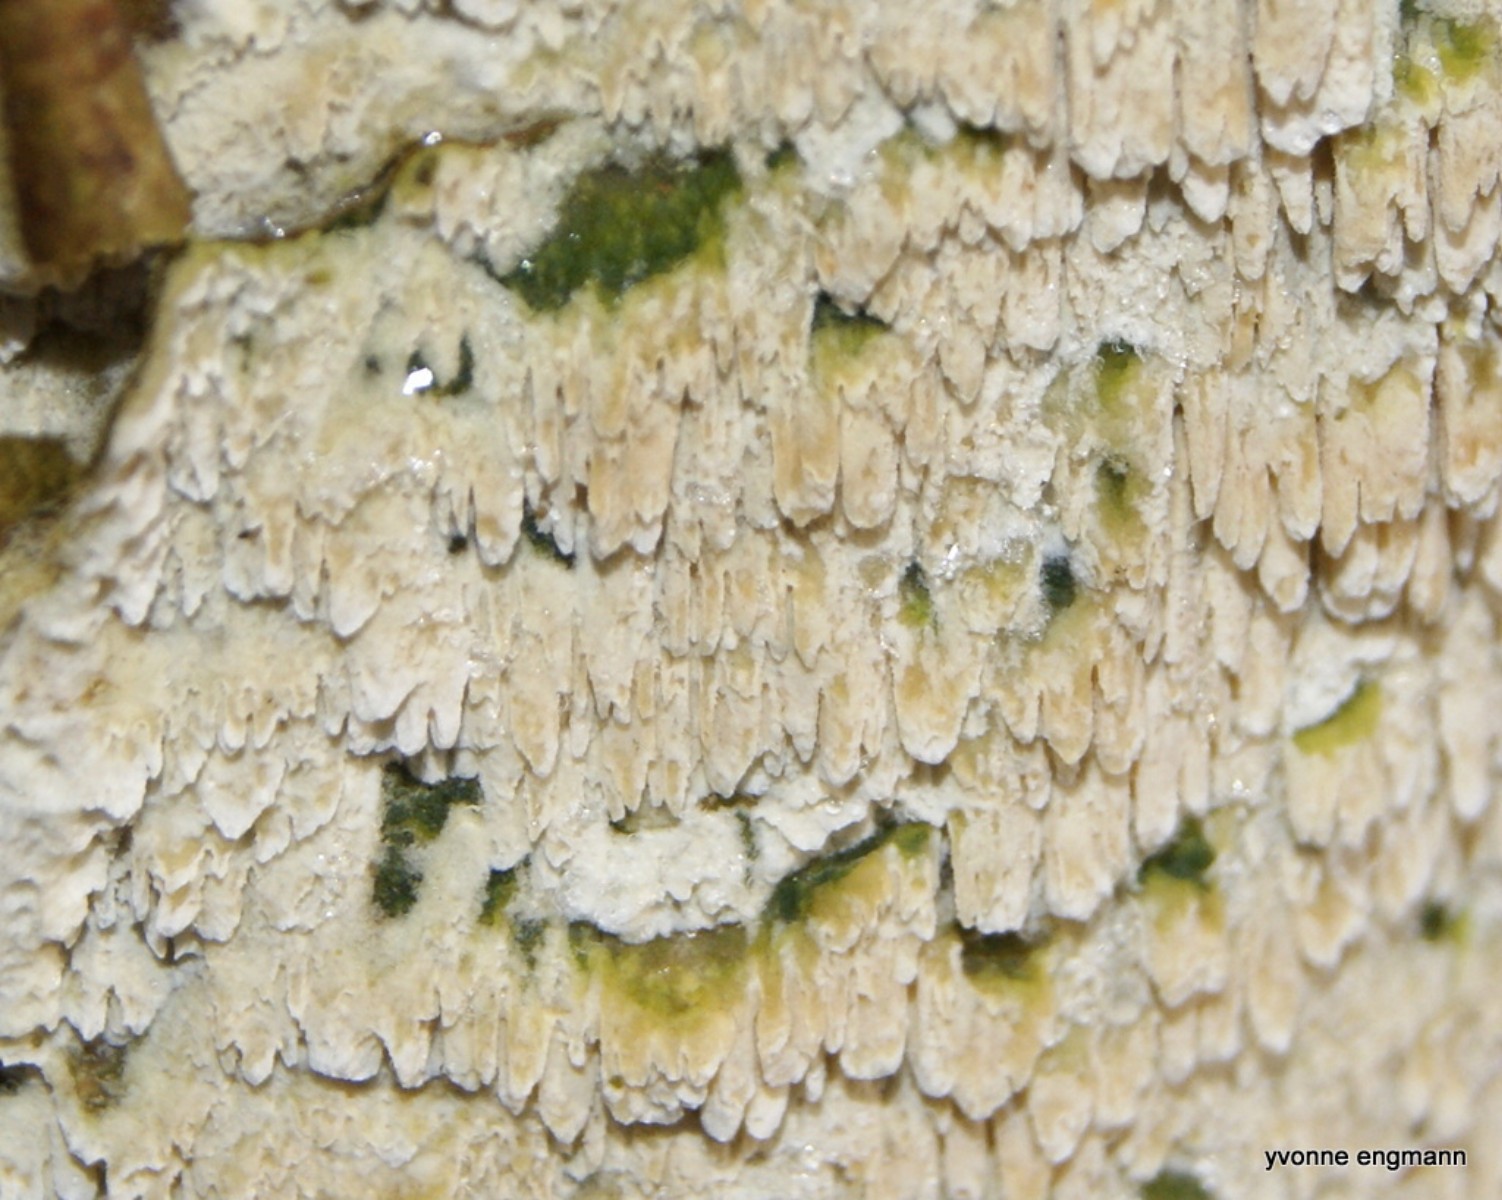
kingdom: Fungi
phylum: Basidiomycota
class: Agaricomycetes
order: Hymenochaetales
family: Schizoporaceae
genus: Schizopora
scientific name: Schizopora paradoxa
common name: hvid tandsvamp
